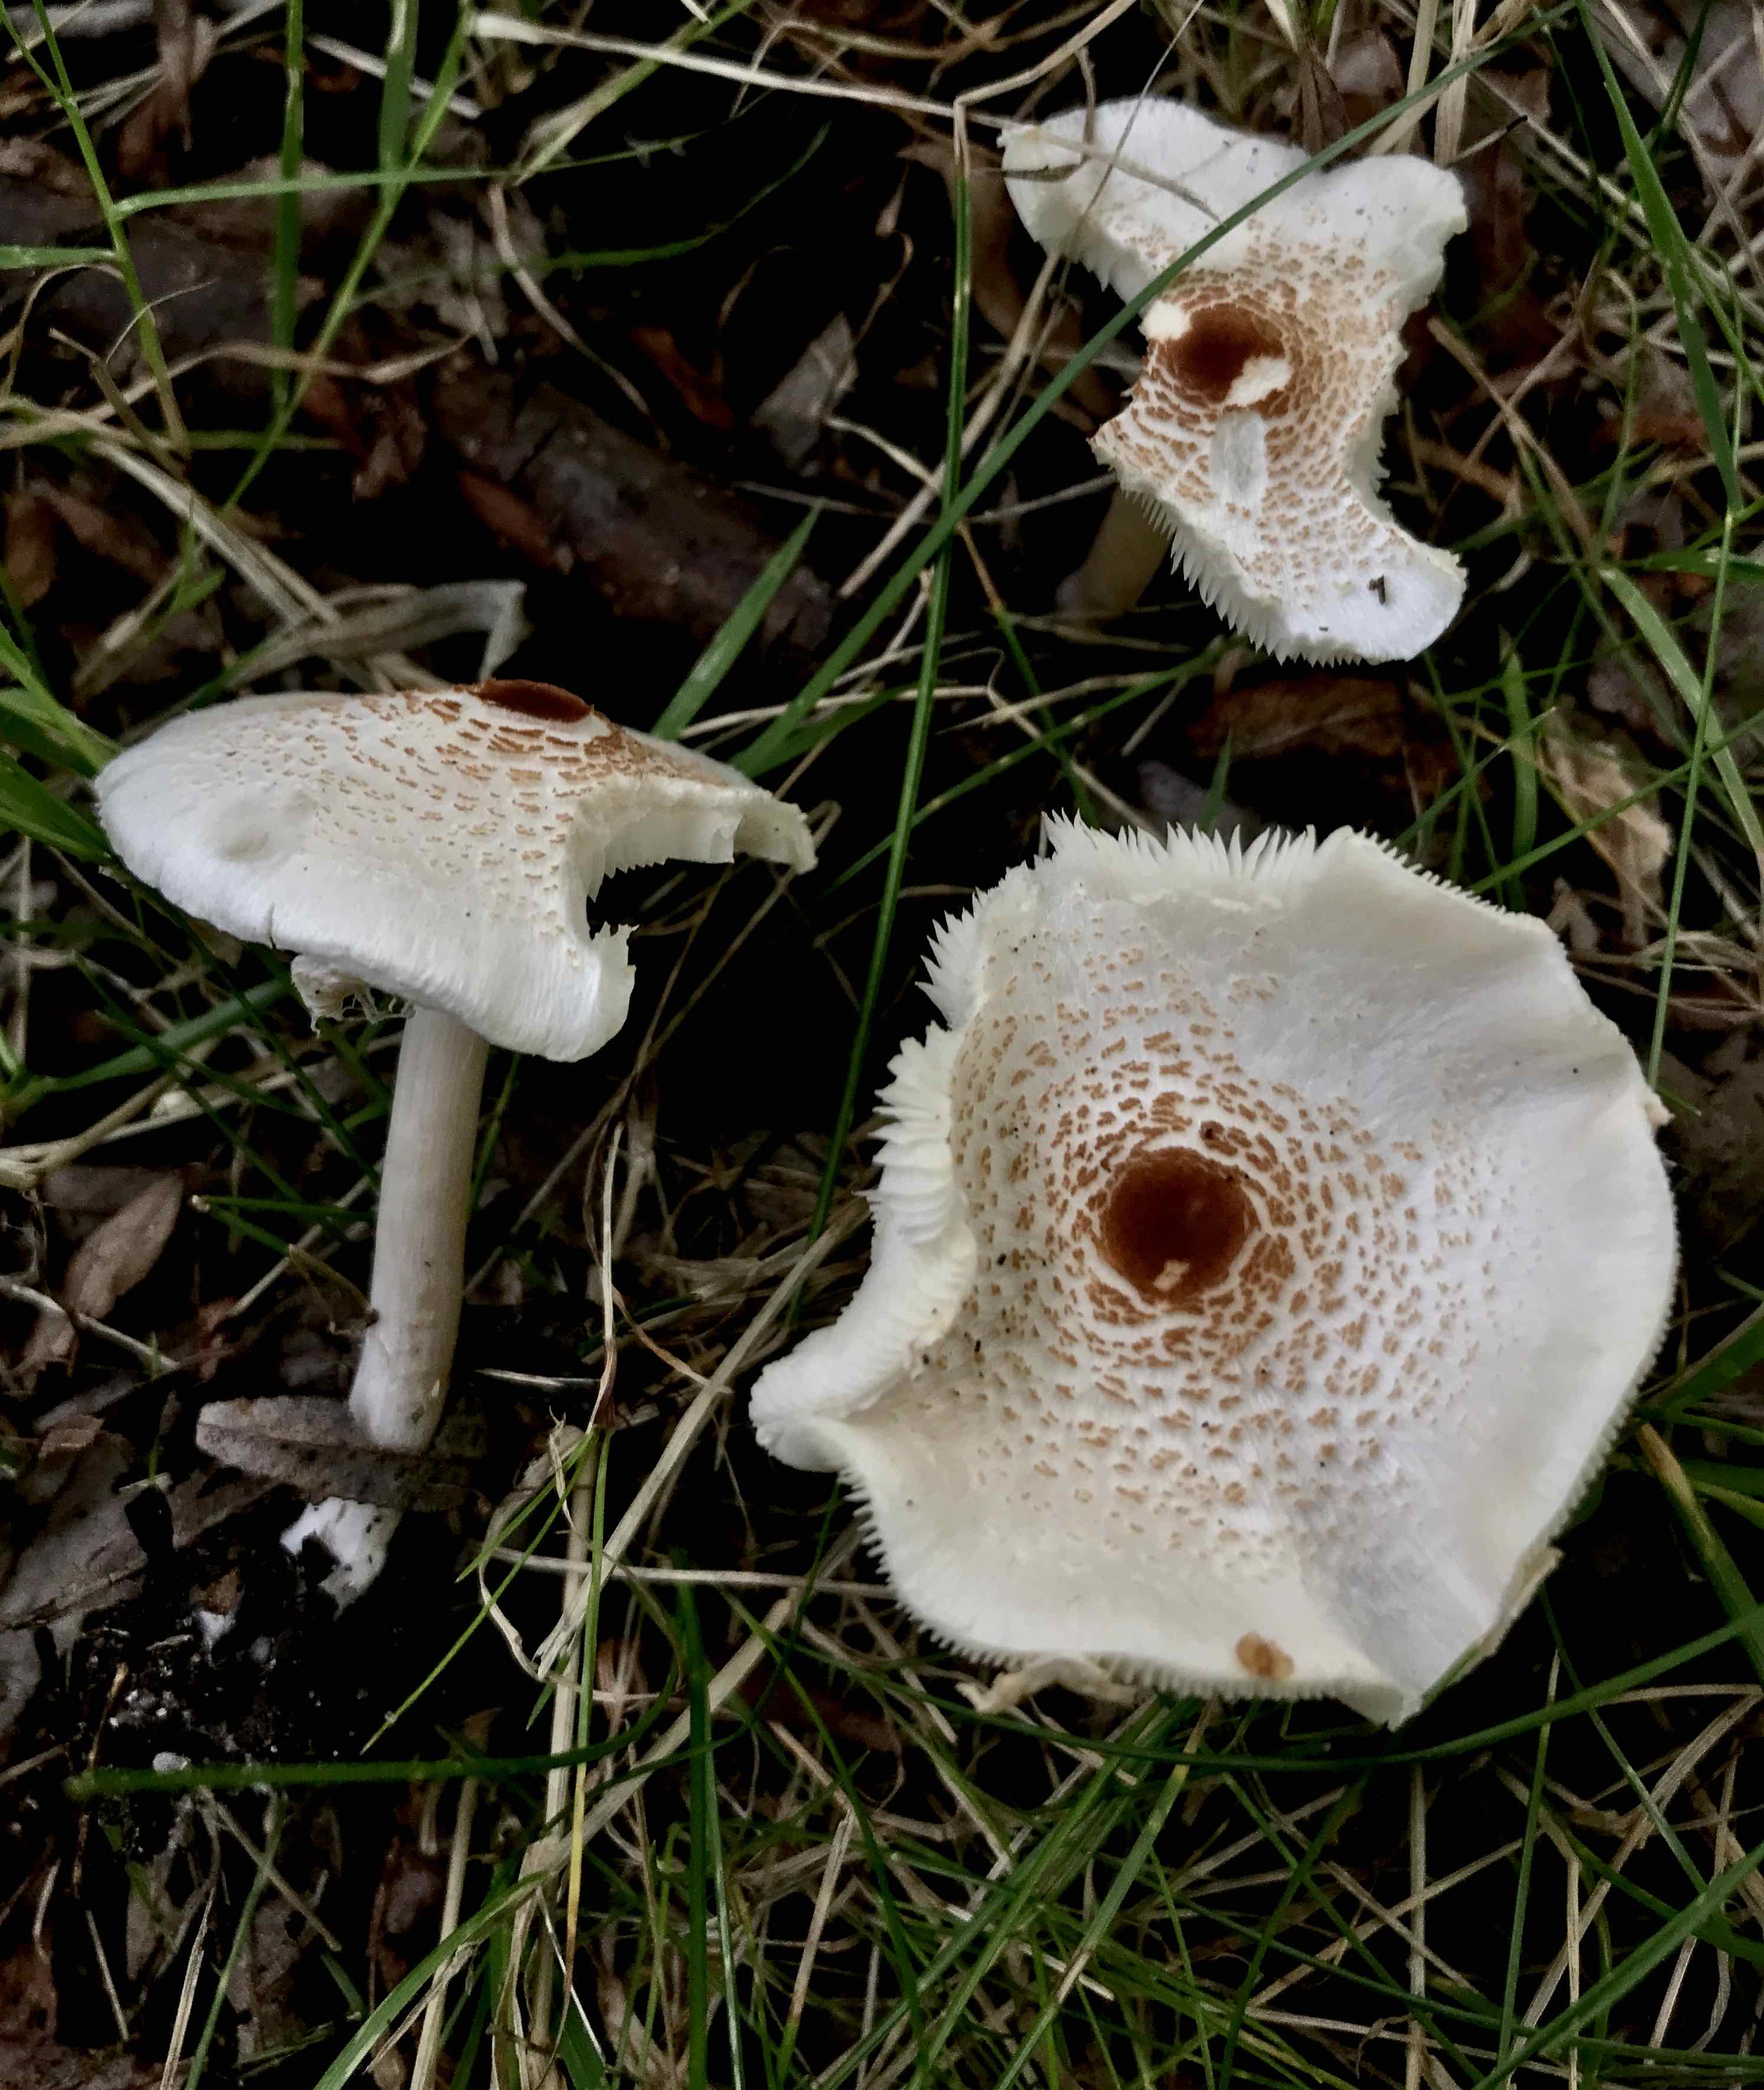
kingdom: Fungi
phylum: Basidiomycota
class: Agaricomycetes
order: Agaricales
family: Agaricaceae
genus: Lepiota
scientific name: Lepiota cristata
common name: stinkende parasolhat
